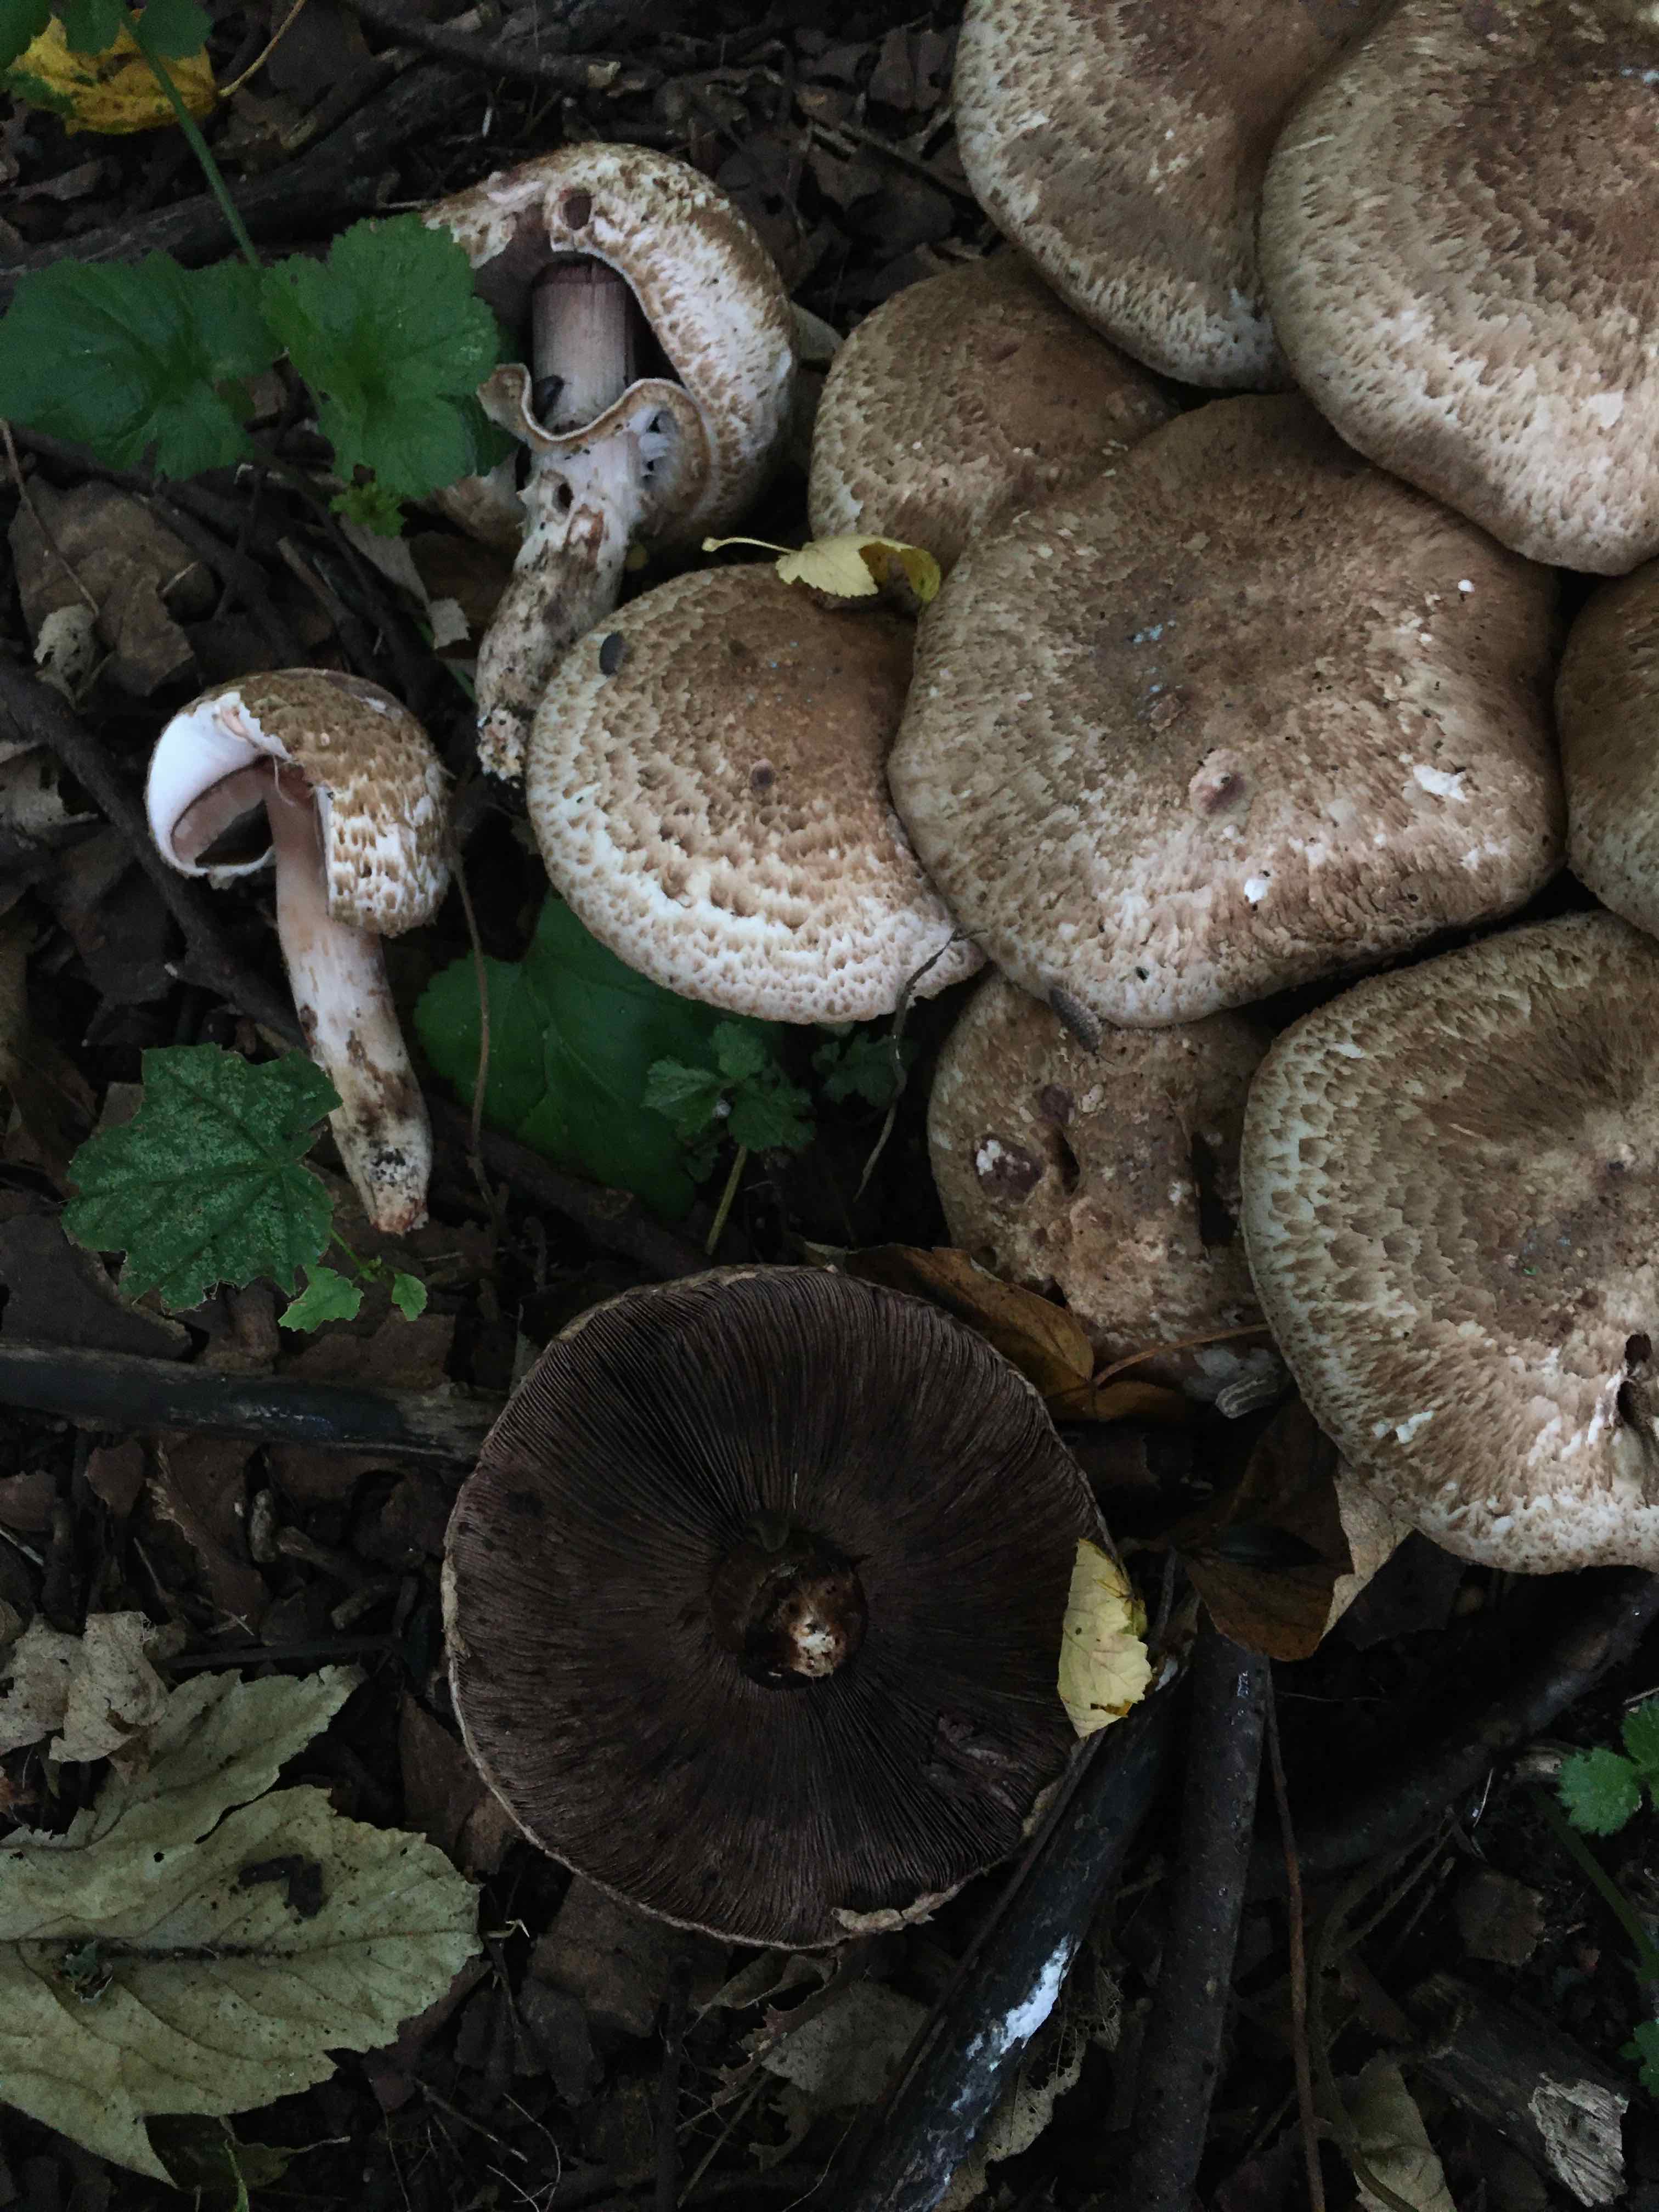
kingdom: Fungi
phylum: Basidiomycota
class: Agaricomycetes
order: Agaricales
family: Agaricaceae
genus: Agaricus
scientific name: Agaricus subperonatus
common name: knippe-champignon
